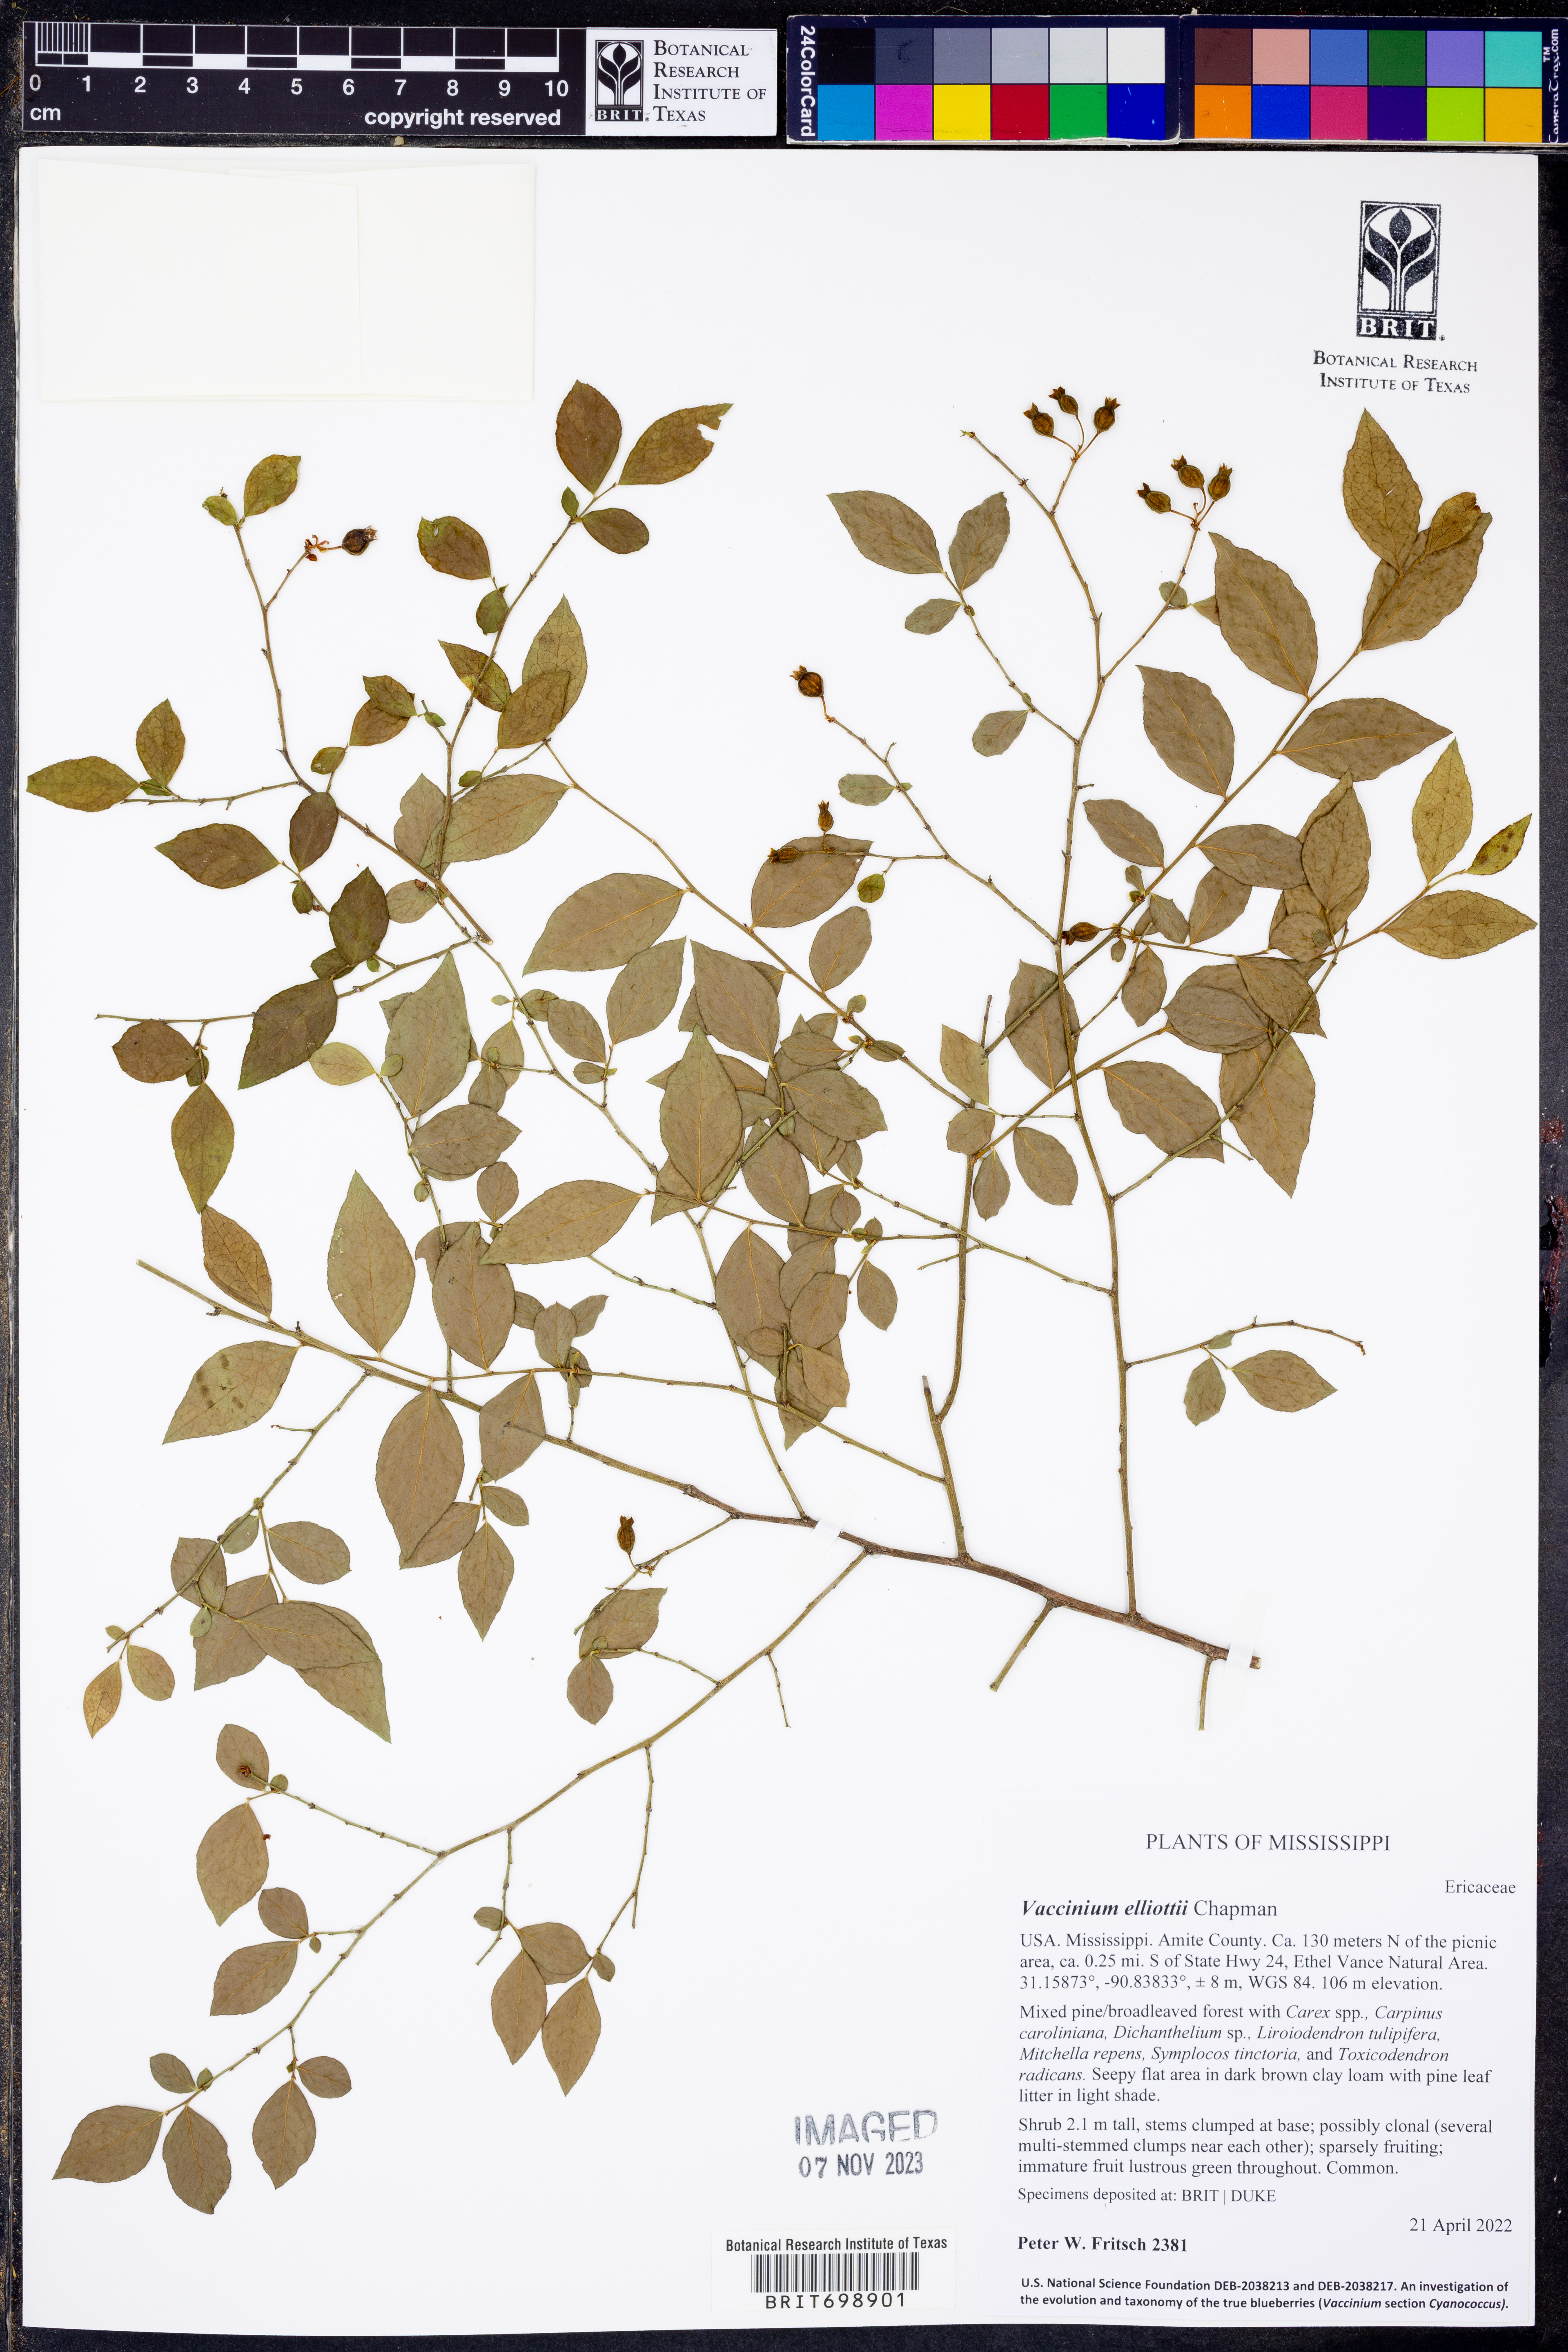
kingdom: Plantae
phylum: Tracheophyta
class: Magnoliopsida
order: Ericales
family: Ericaceae
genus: Vaccinium
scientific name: Vaccinium corymbosum
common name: Blueberry
